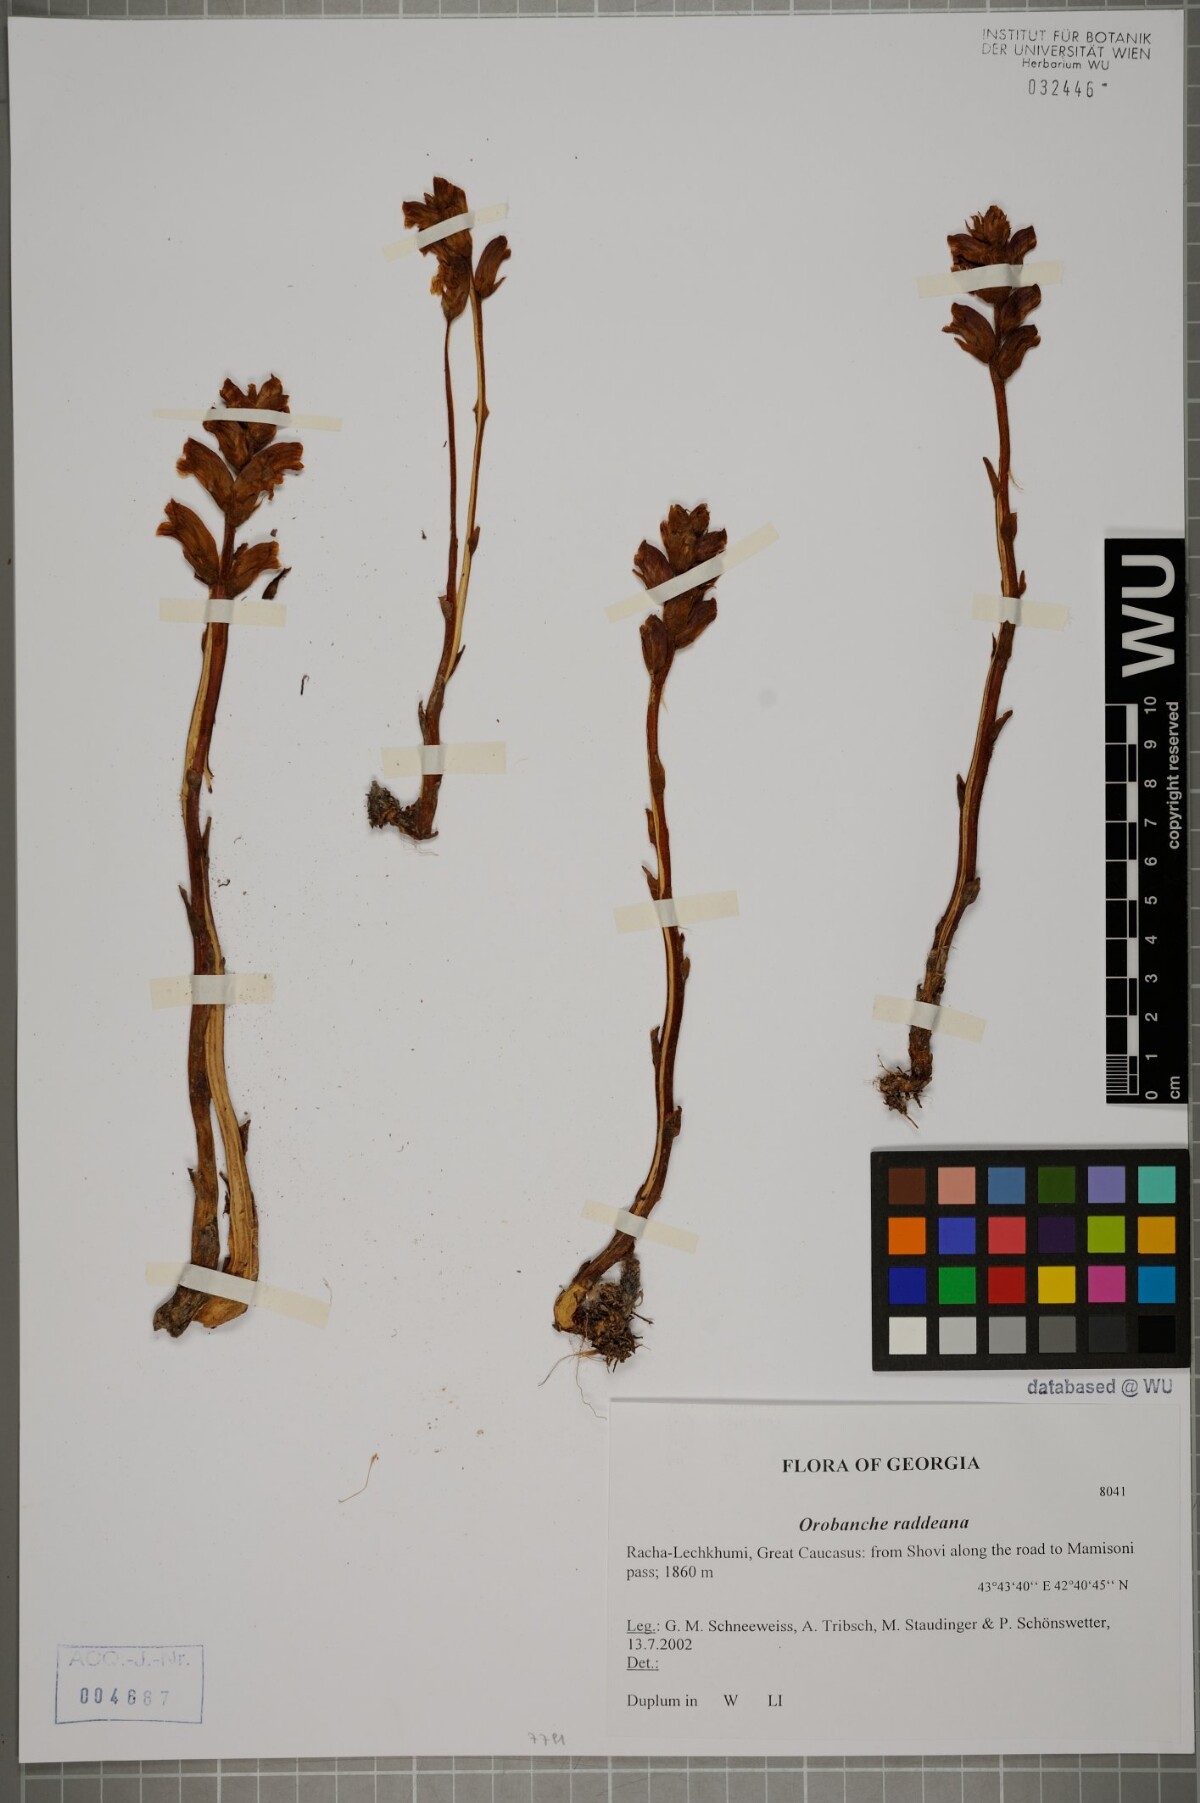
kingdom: Plantae
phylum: Tracheophyta
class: Magnoliopsida
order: Lamiales
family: Orobanchaceae
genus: Orobanche
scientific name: Orobanche alba
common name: Thyme broomrape
